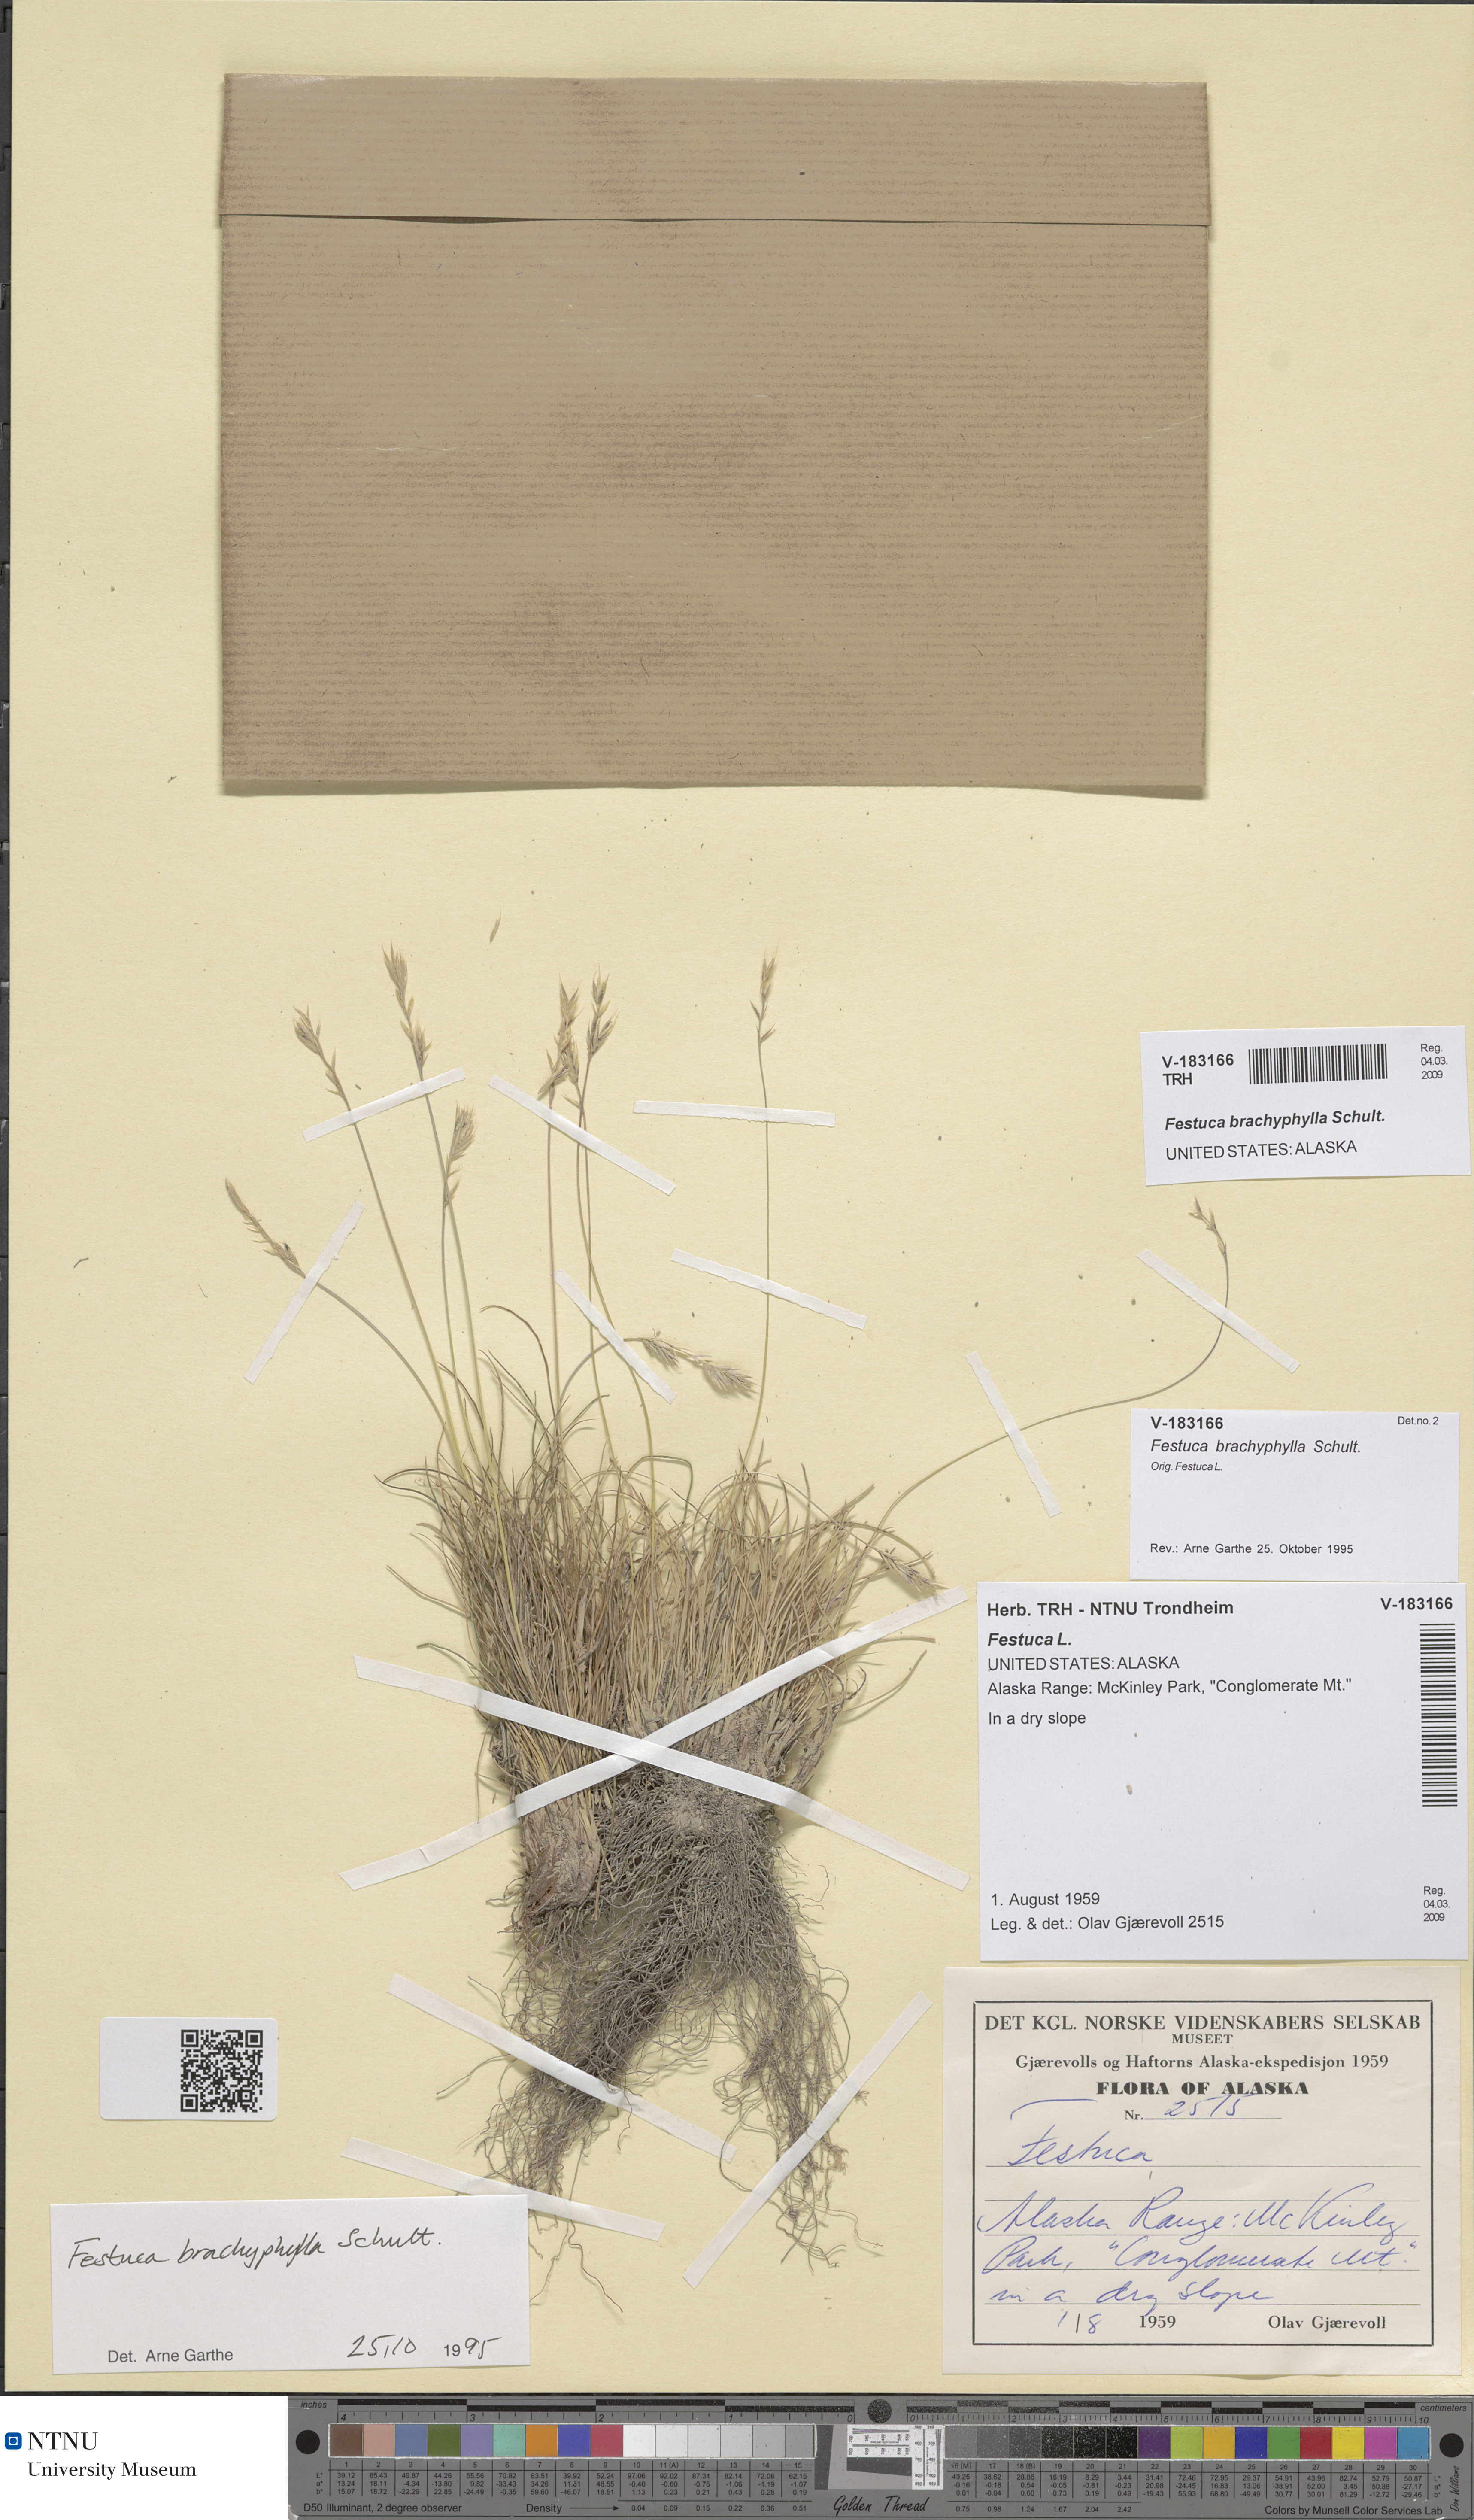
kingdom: Plantae
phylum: Tracheophyta
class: Liliopsida
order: Poales
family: Poaceae
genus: Festuca
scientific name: Festuca brachyphylla
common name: Alpine fescue
